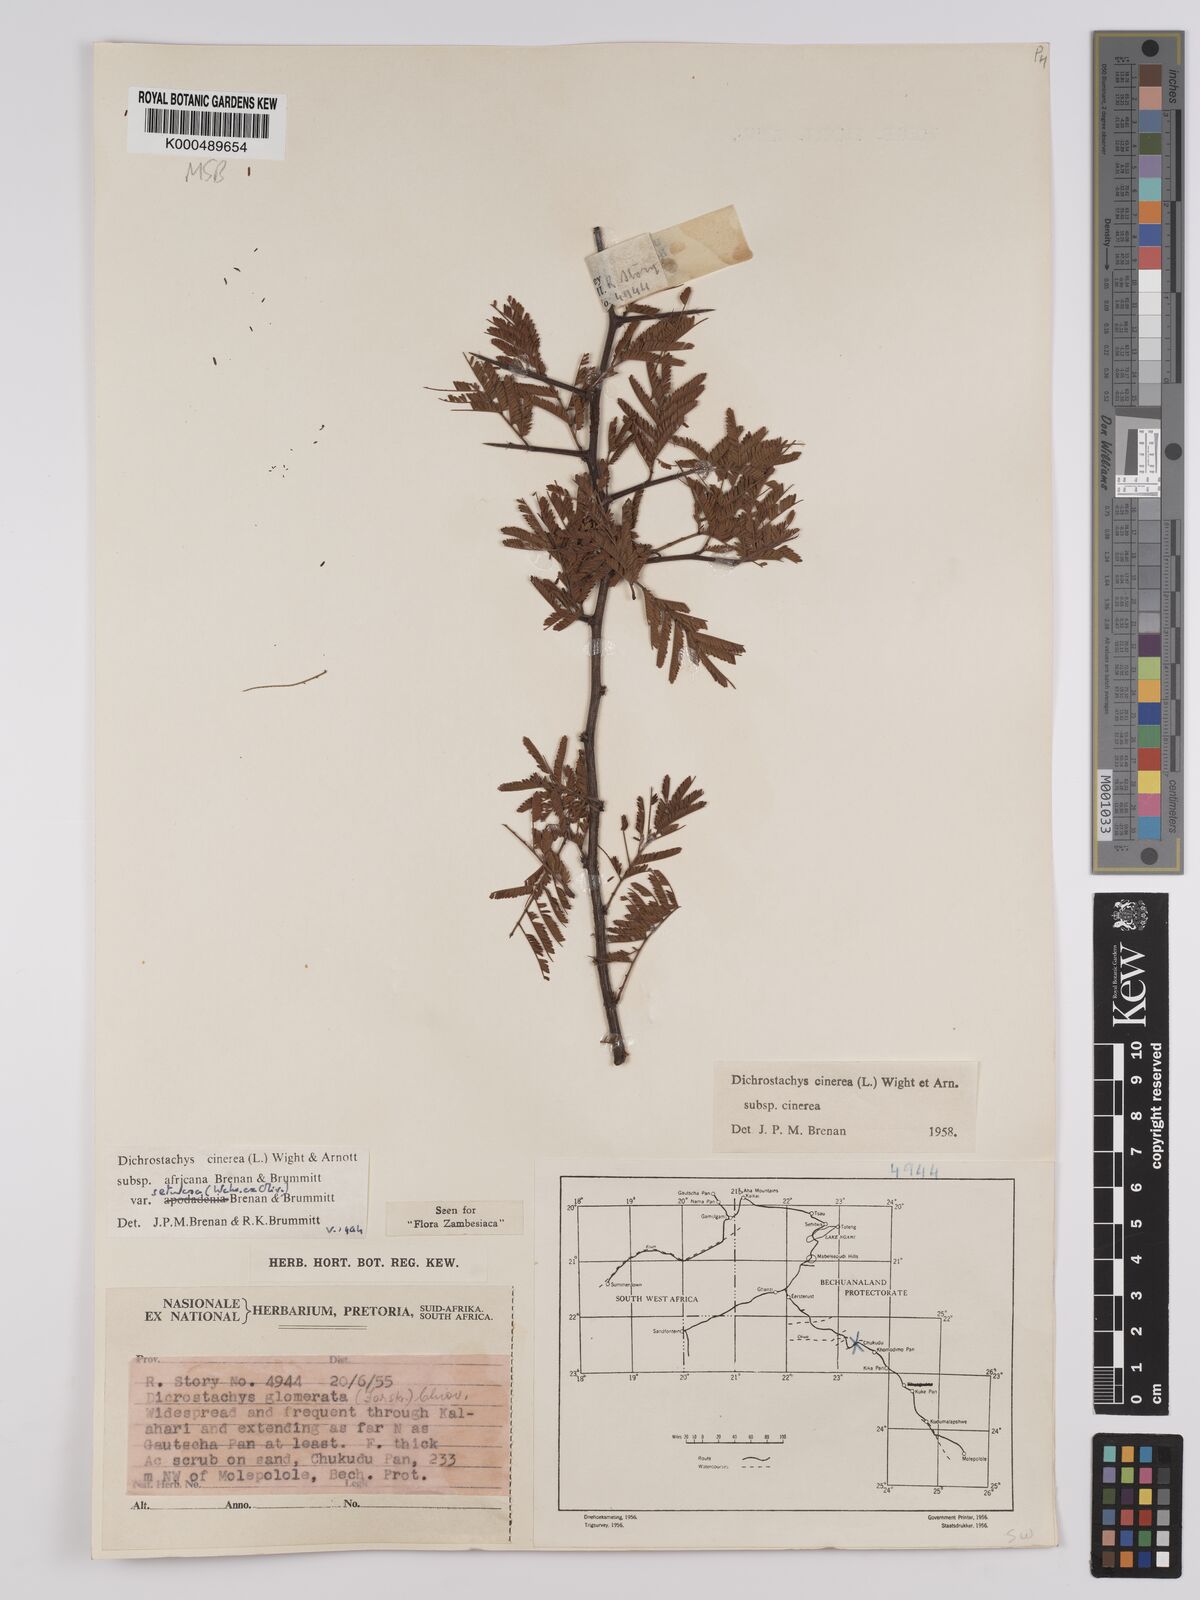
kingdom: Plantae
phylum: Tracheophyta
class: Magnoliopsida
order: Fabales
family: Fabaceae
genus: Dichrostachys
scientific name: Dichrostachys cinerea
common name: Sicklebush
